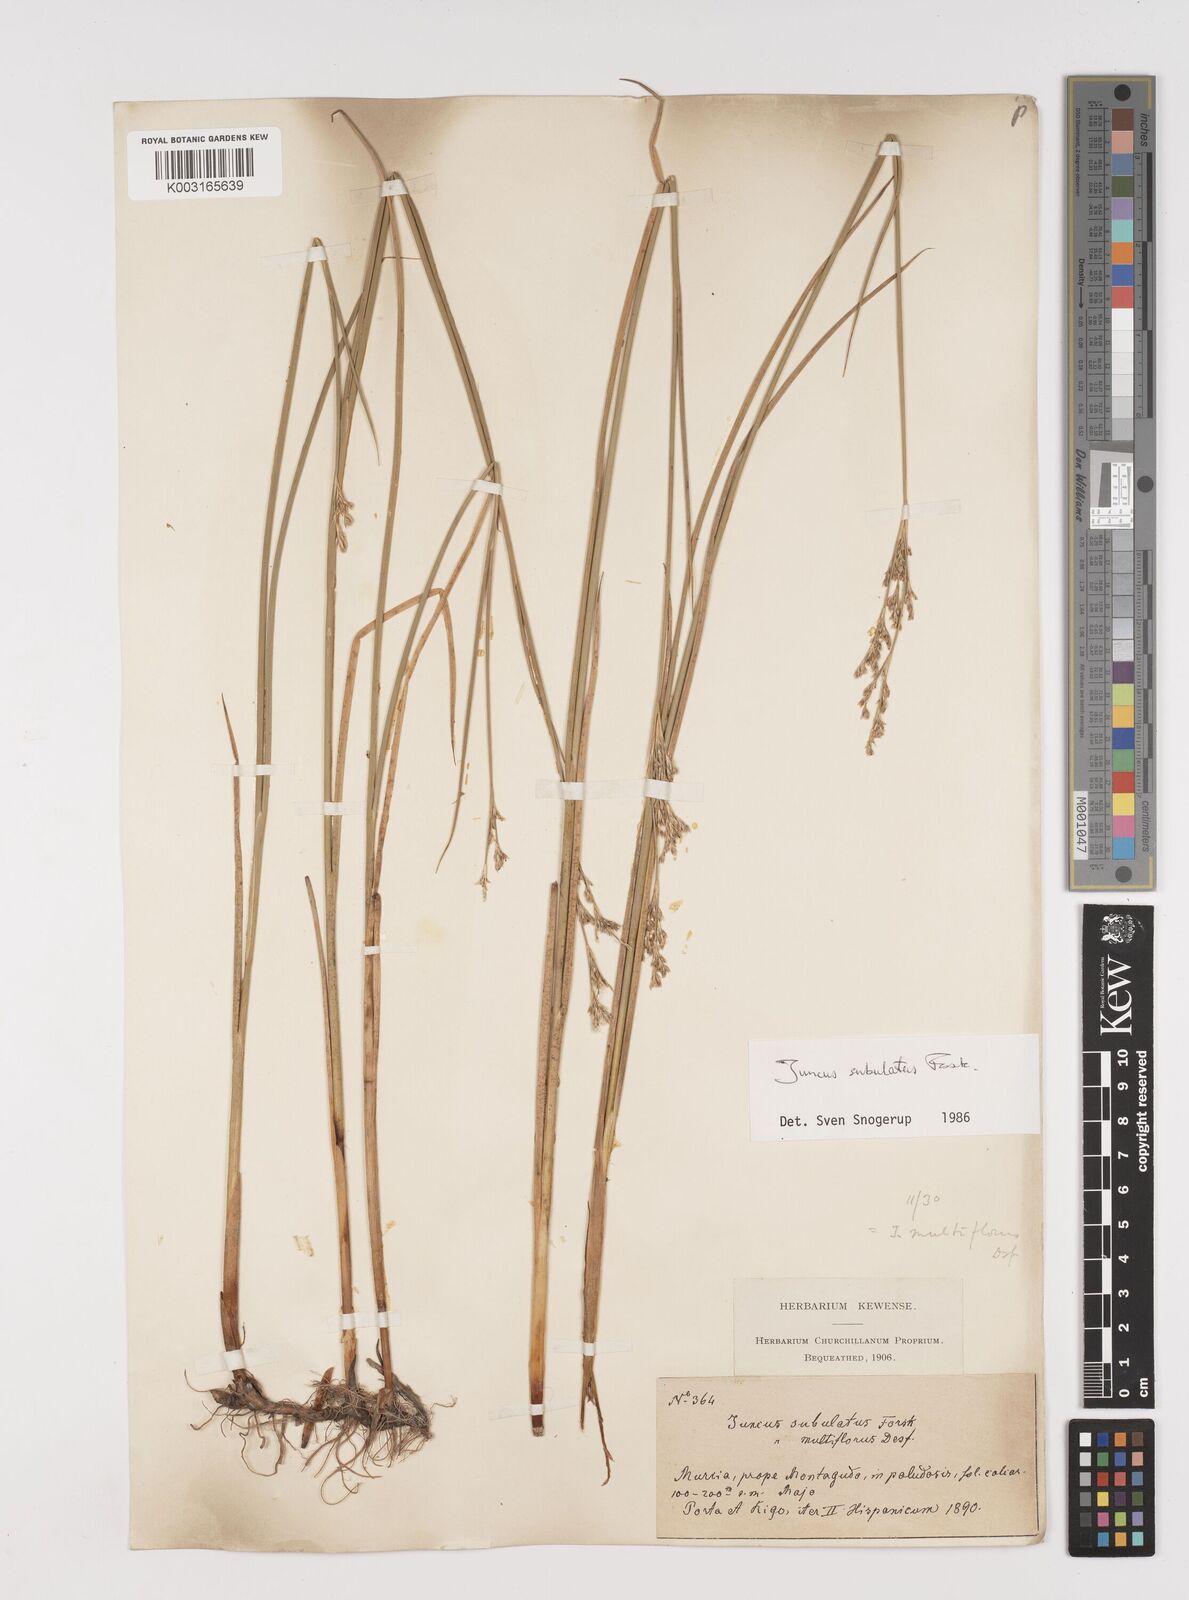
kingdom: Plantae
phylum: Tracheophyta
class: Liliopsida
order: Poales
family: Juncaceae
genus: Juncus
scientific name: Juncus subulatus
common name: Somerset rush
